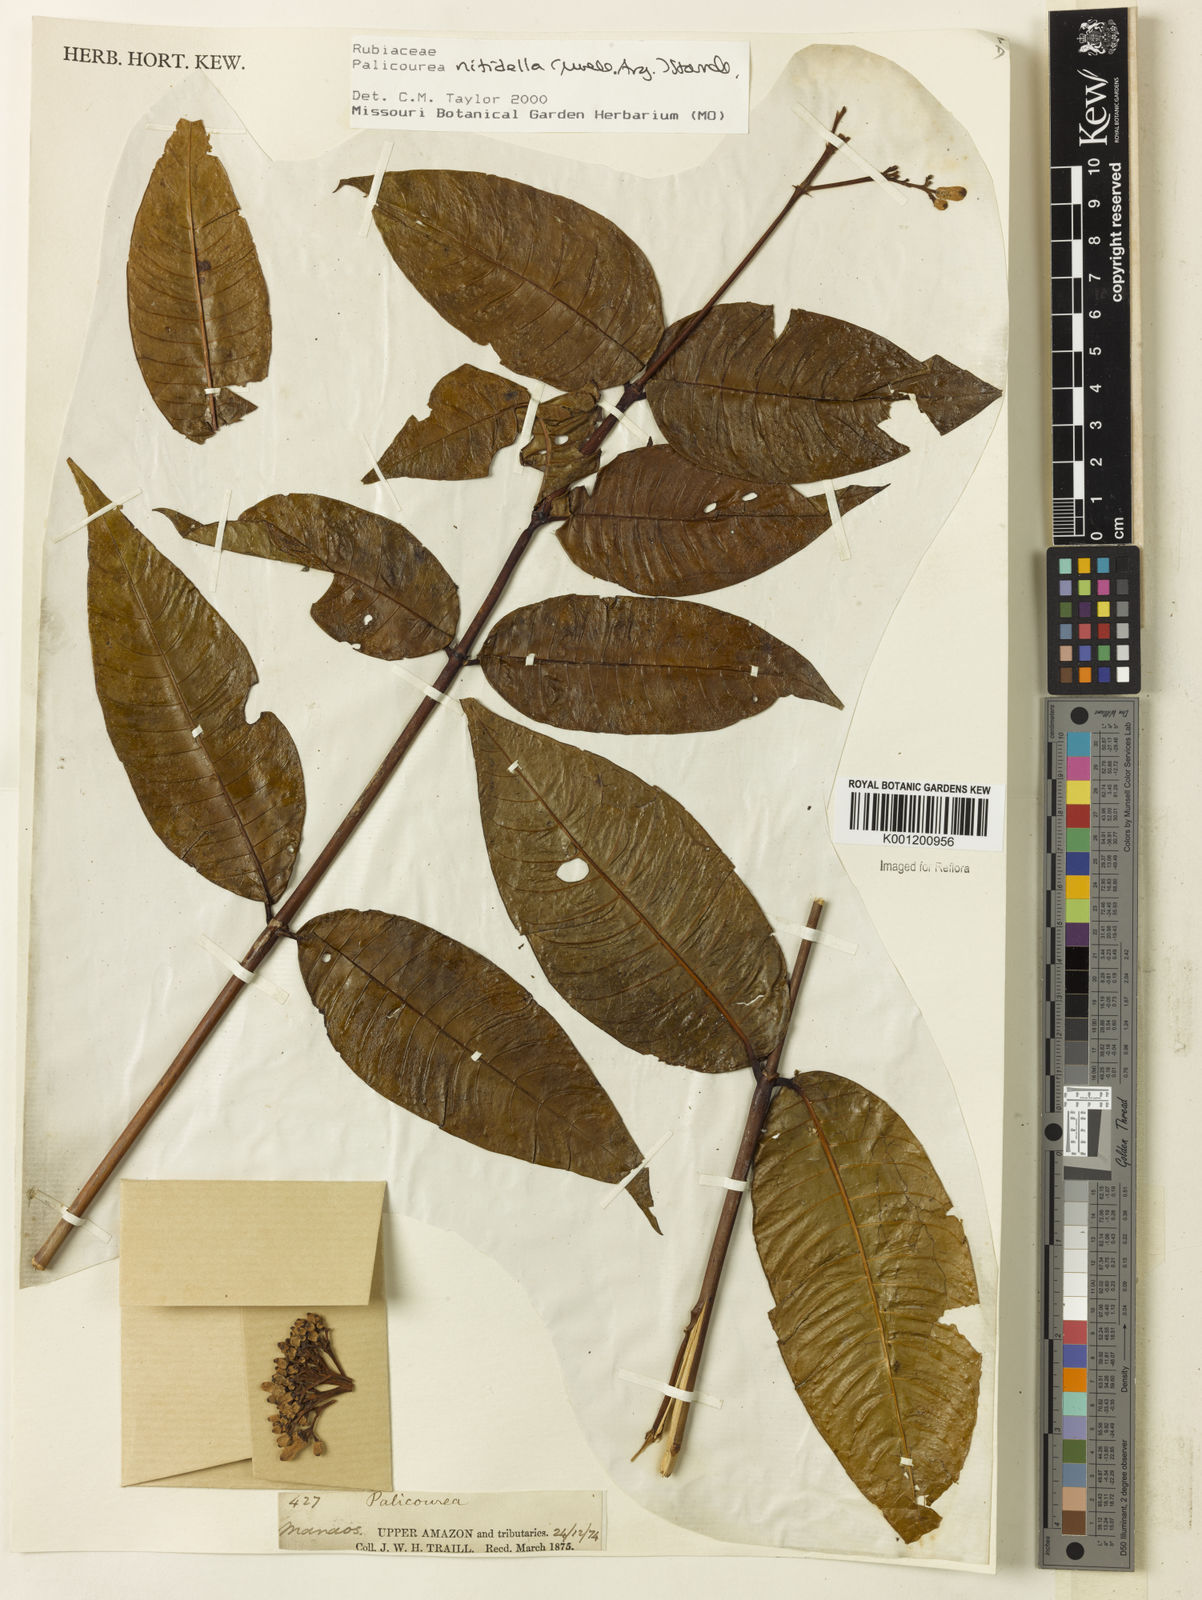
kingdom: Plantae
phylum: Tracheophyta
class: Magnoliopsida
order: Gentianales
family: Rubiaceae
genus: Palicourea
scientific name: Palicourea
